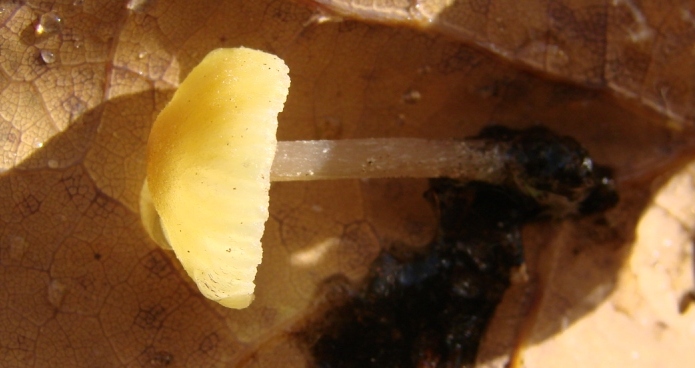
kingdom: Fungi
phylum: Basidiomycota
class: Agaricomycetes
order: Agaricales
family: Entolomataceae
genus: Entoloma
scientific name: Entoloma pleopodium
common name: duftende rødblad
